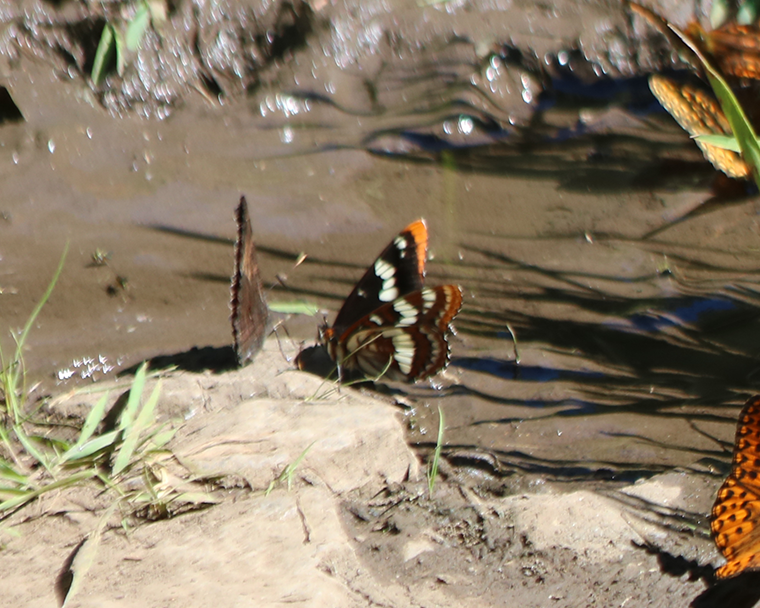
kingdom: Animalia
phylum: Arthropoda
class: Insecta
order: Lepidoptera
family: Nymphalidae
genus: Limenitis
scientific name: Limenitis lorquini
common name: Lorquin's Admiral
